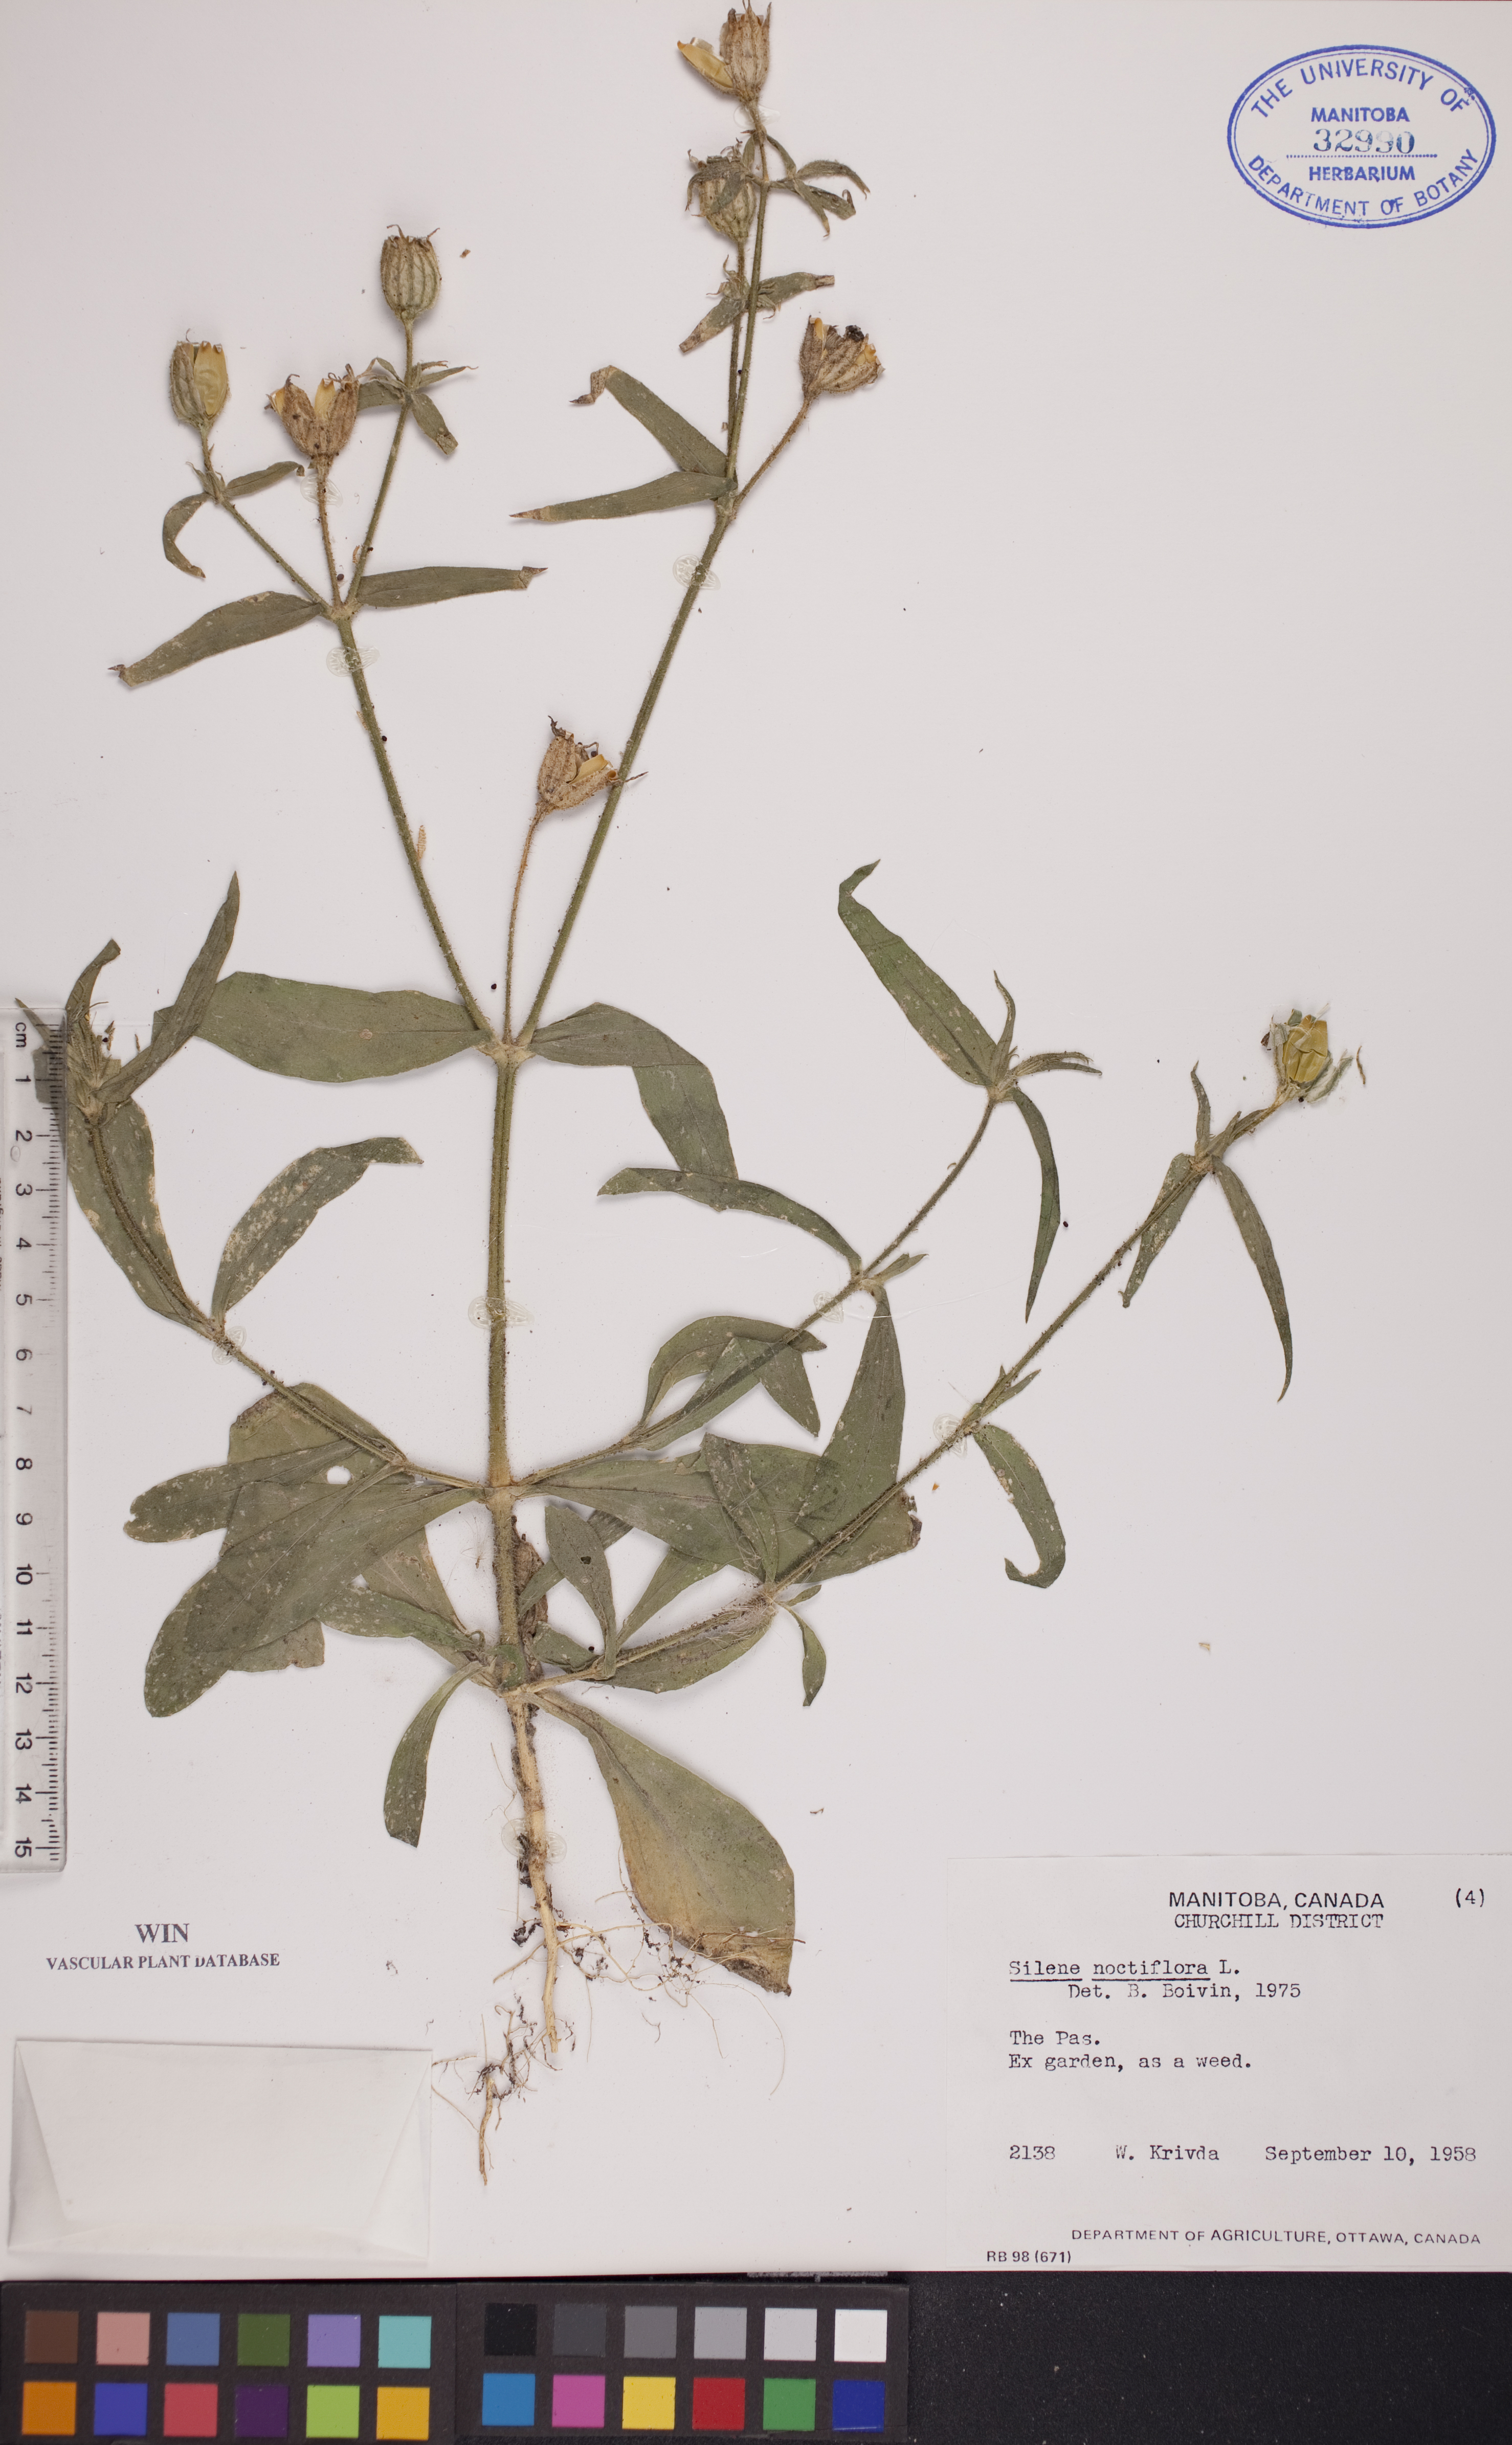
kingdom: Plantae
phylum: Tracheophyta
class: Magnoliopsida
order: Caryophyllales
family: Caryophyllaceae
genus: Silene
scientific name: Silene noctiflora
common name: Night-flowering catchfly
